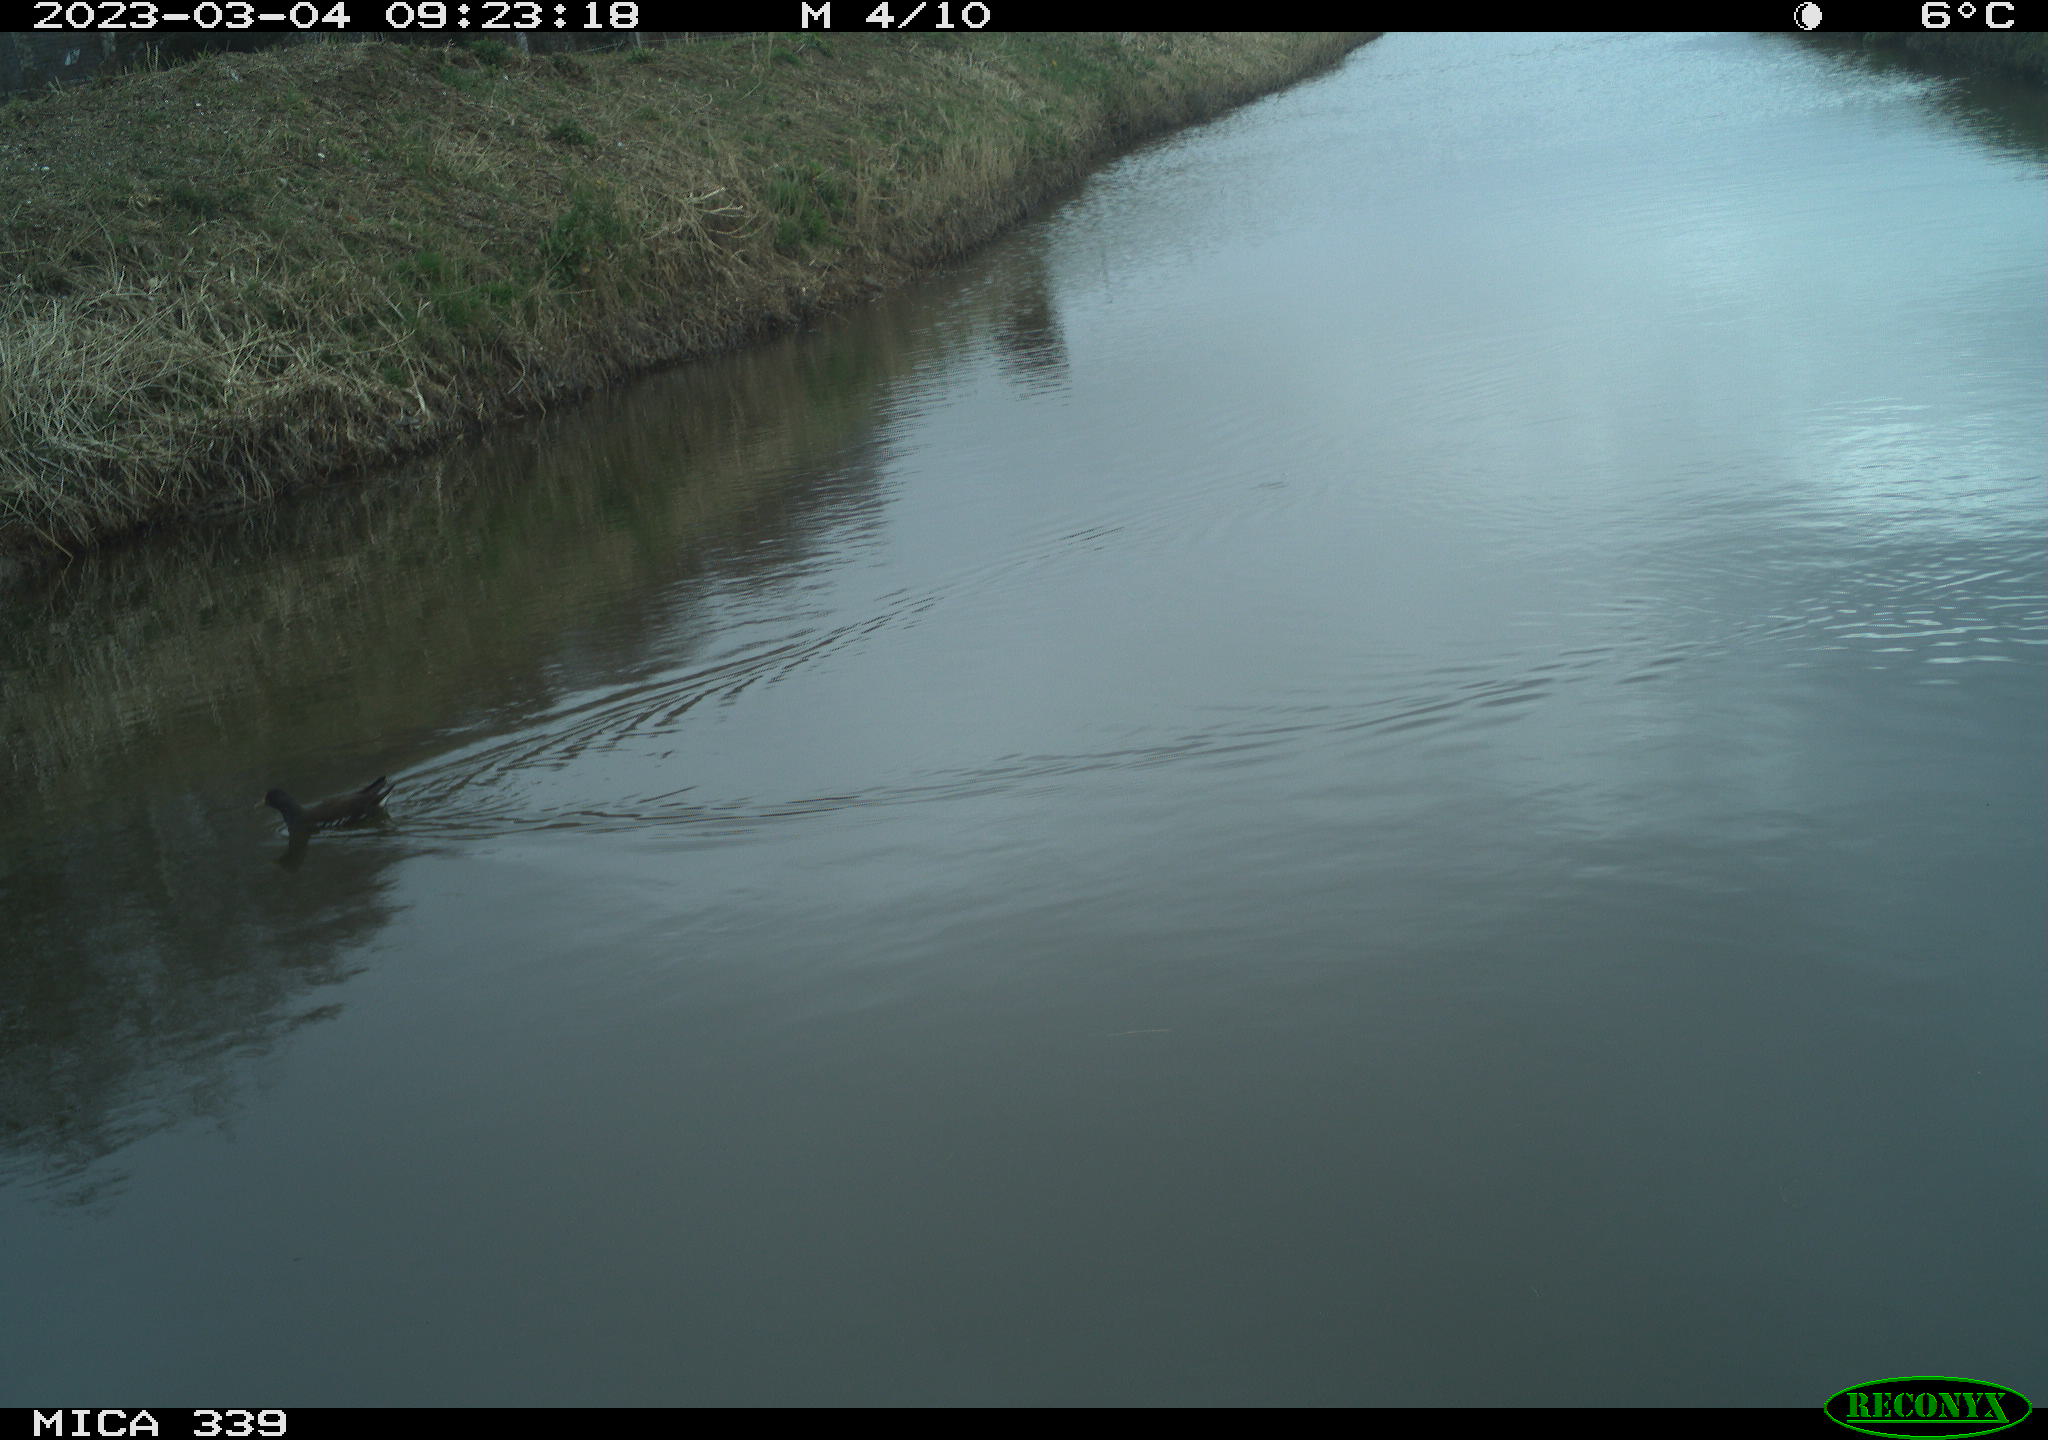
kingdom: Animalia
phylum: Chordata
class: Aves
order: Gruiformes
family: Rallidae
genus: Gallinula
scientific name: Gallinula chloropus
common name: Common moorhen
